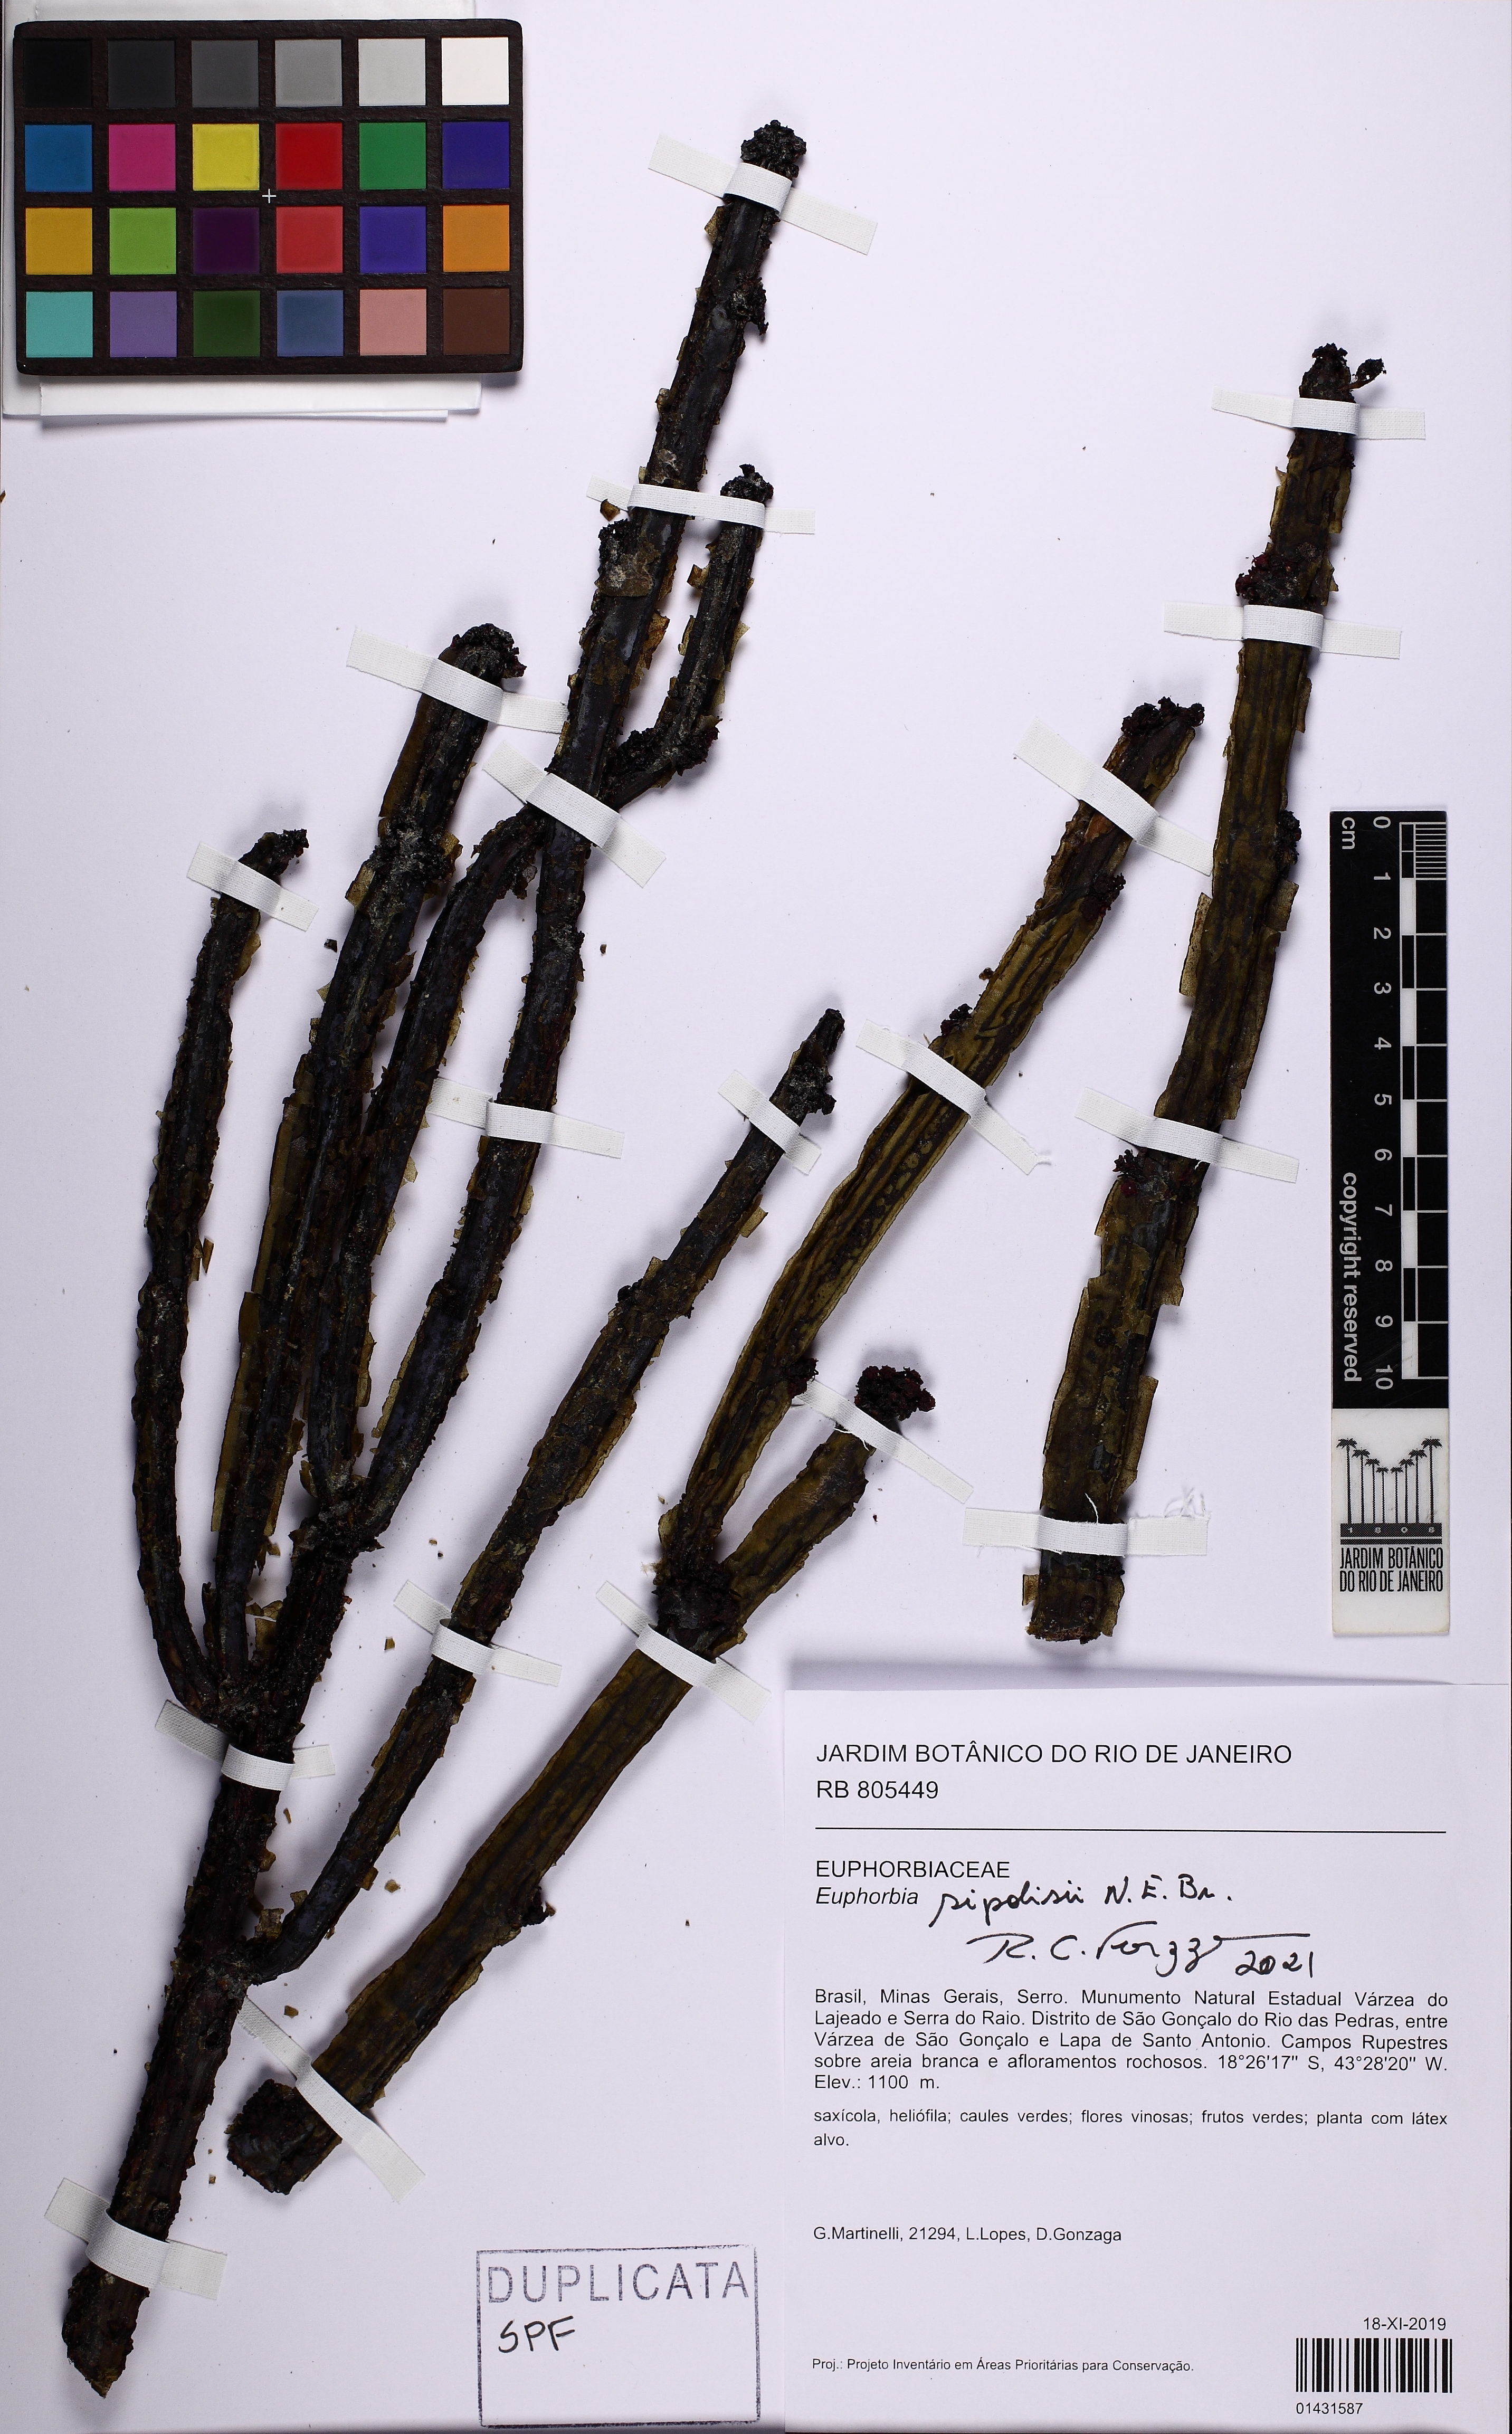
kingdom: Plantae
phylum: Tracheophyta
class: Magnoliopsida
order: Malpighiales
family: Euphorbiaceae
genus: Euphorbia
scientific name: Euphorbia sipolisii
